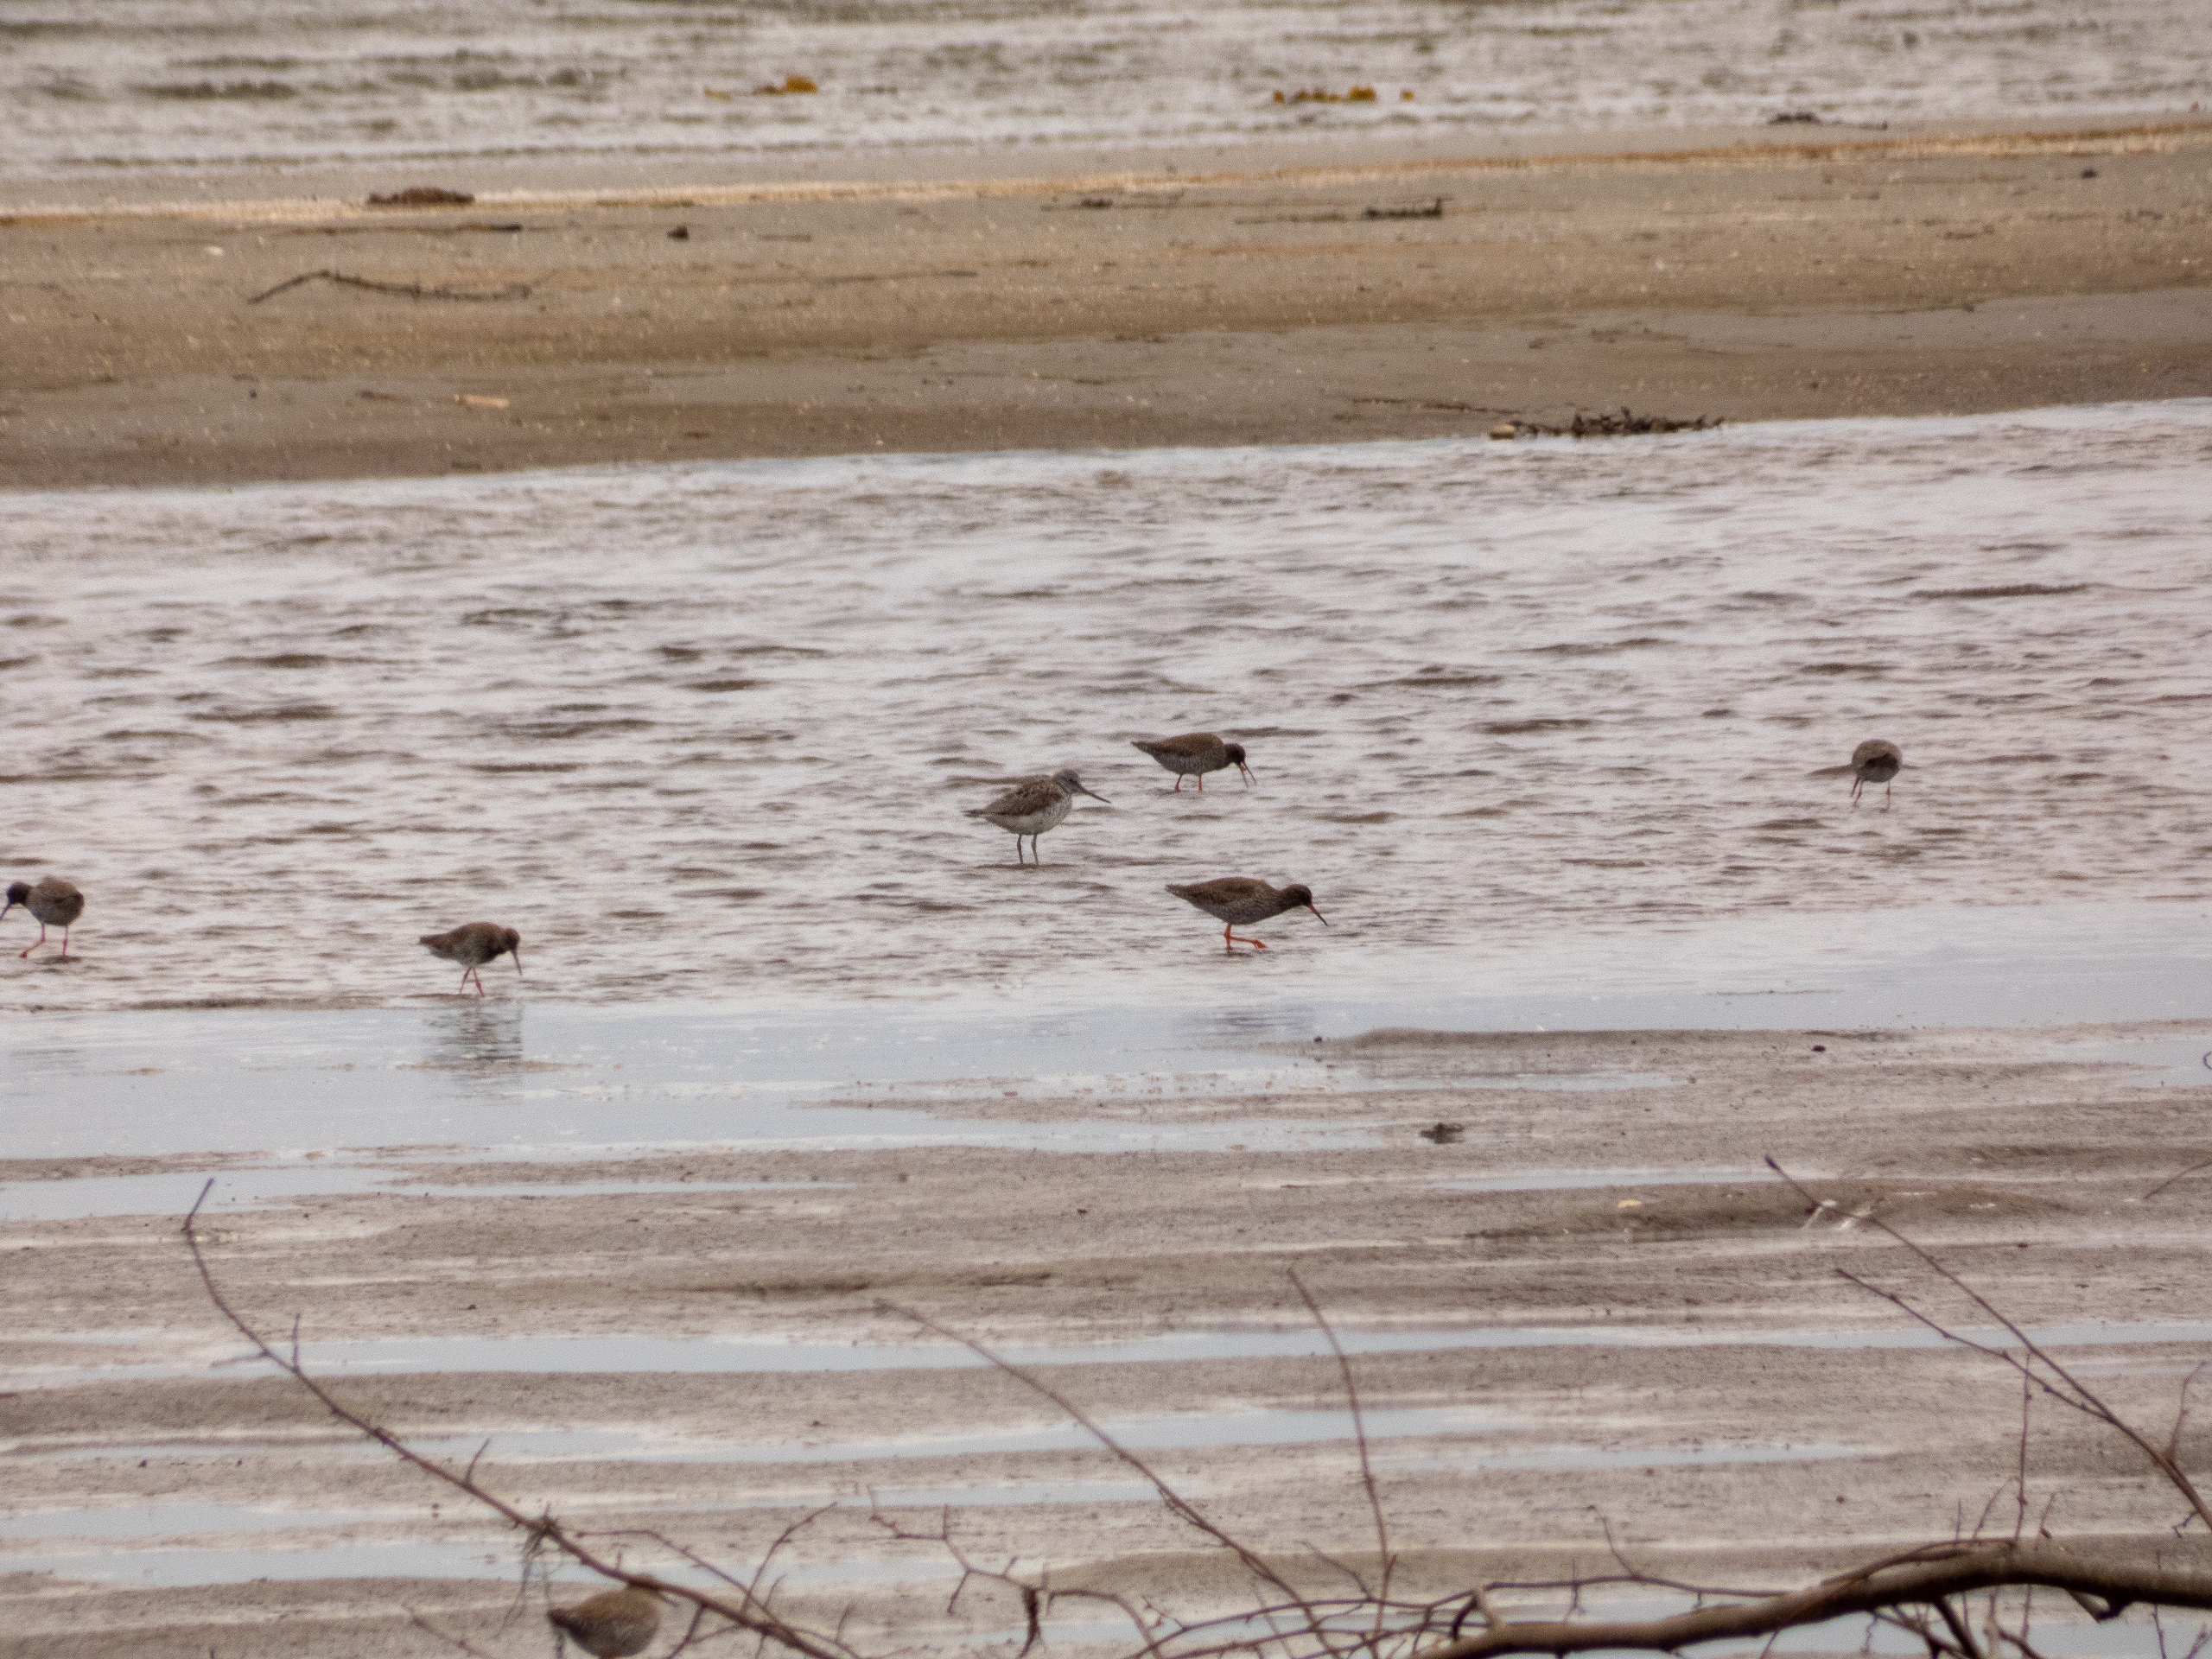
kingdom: Animalia
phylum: Chordata
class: Aves
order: Charadriiformes
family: Scolopacidae
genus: Tringa
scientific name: Tringa nebularia
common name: Hvidklire
